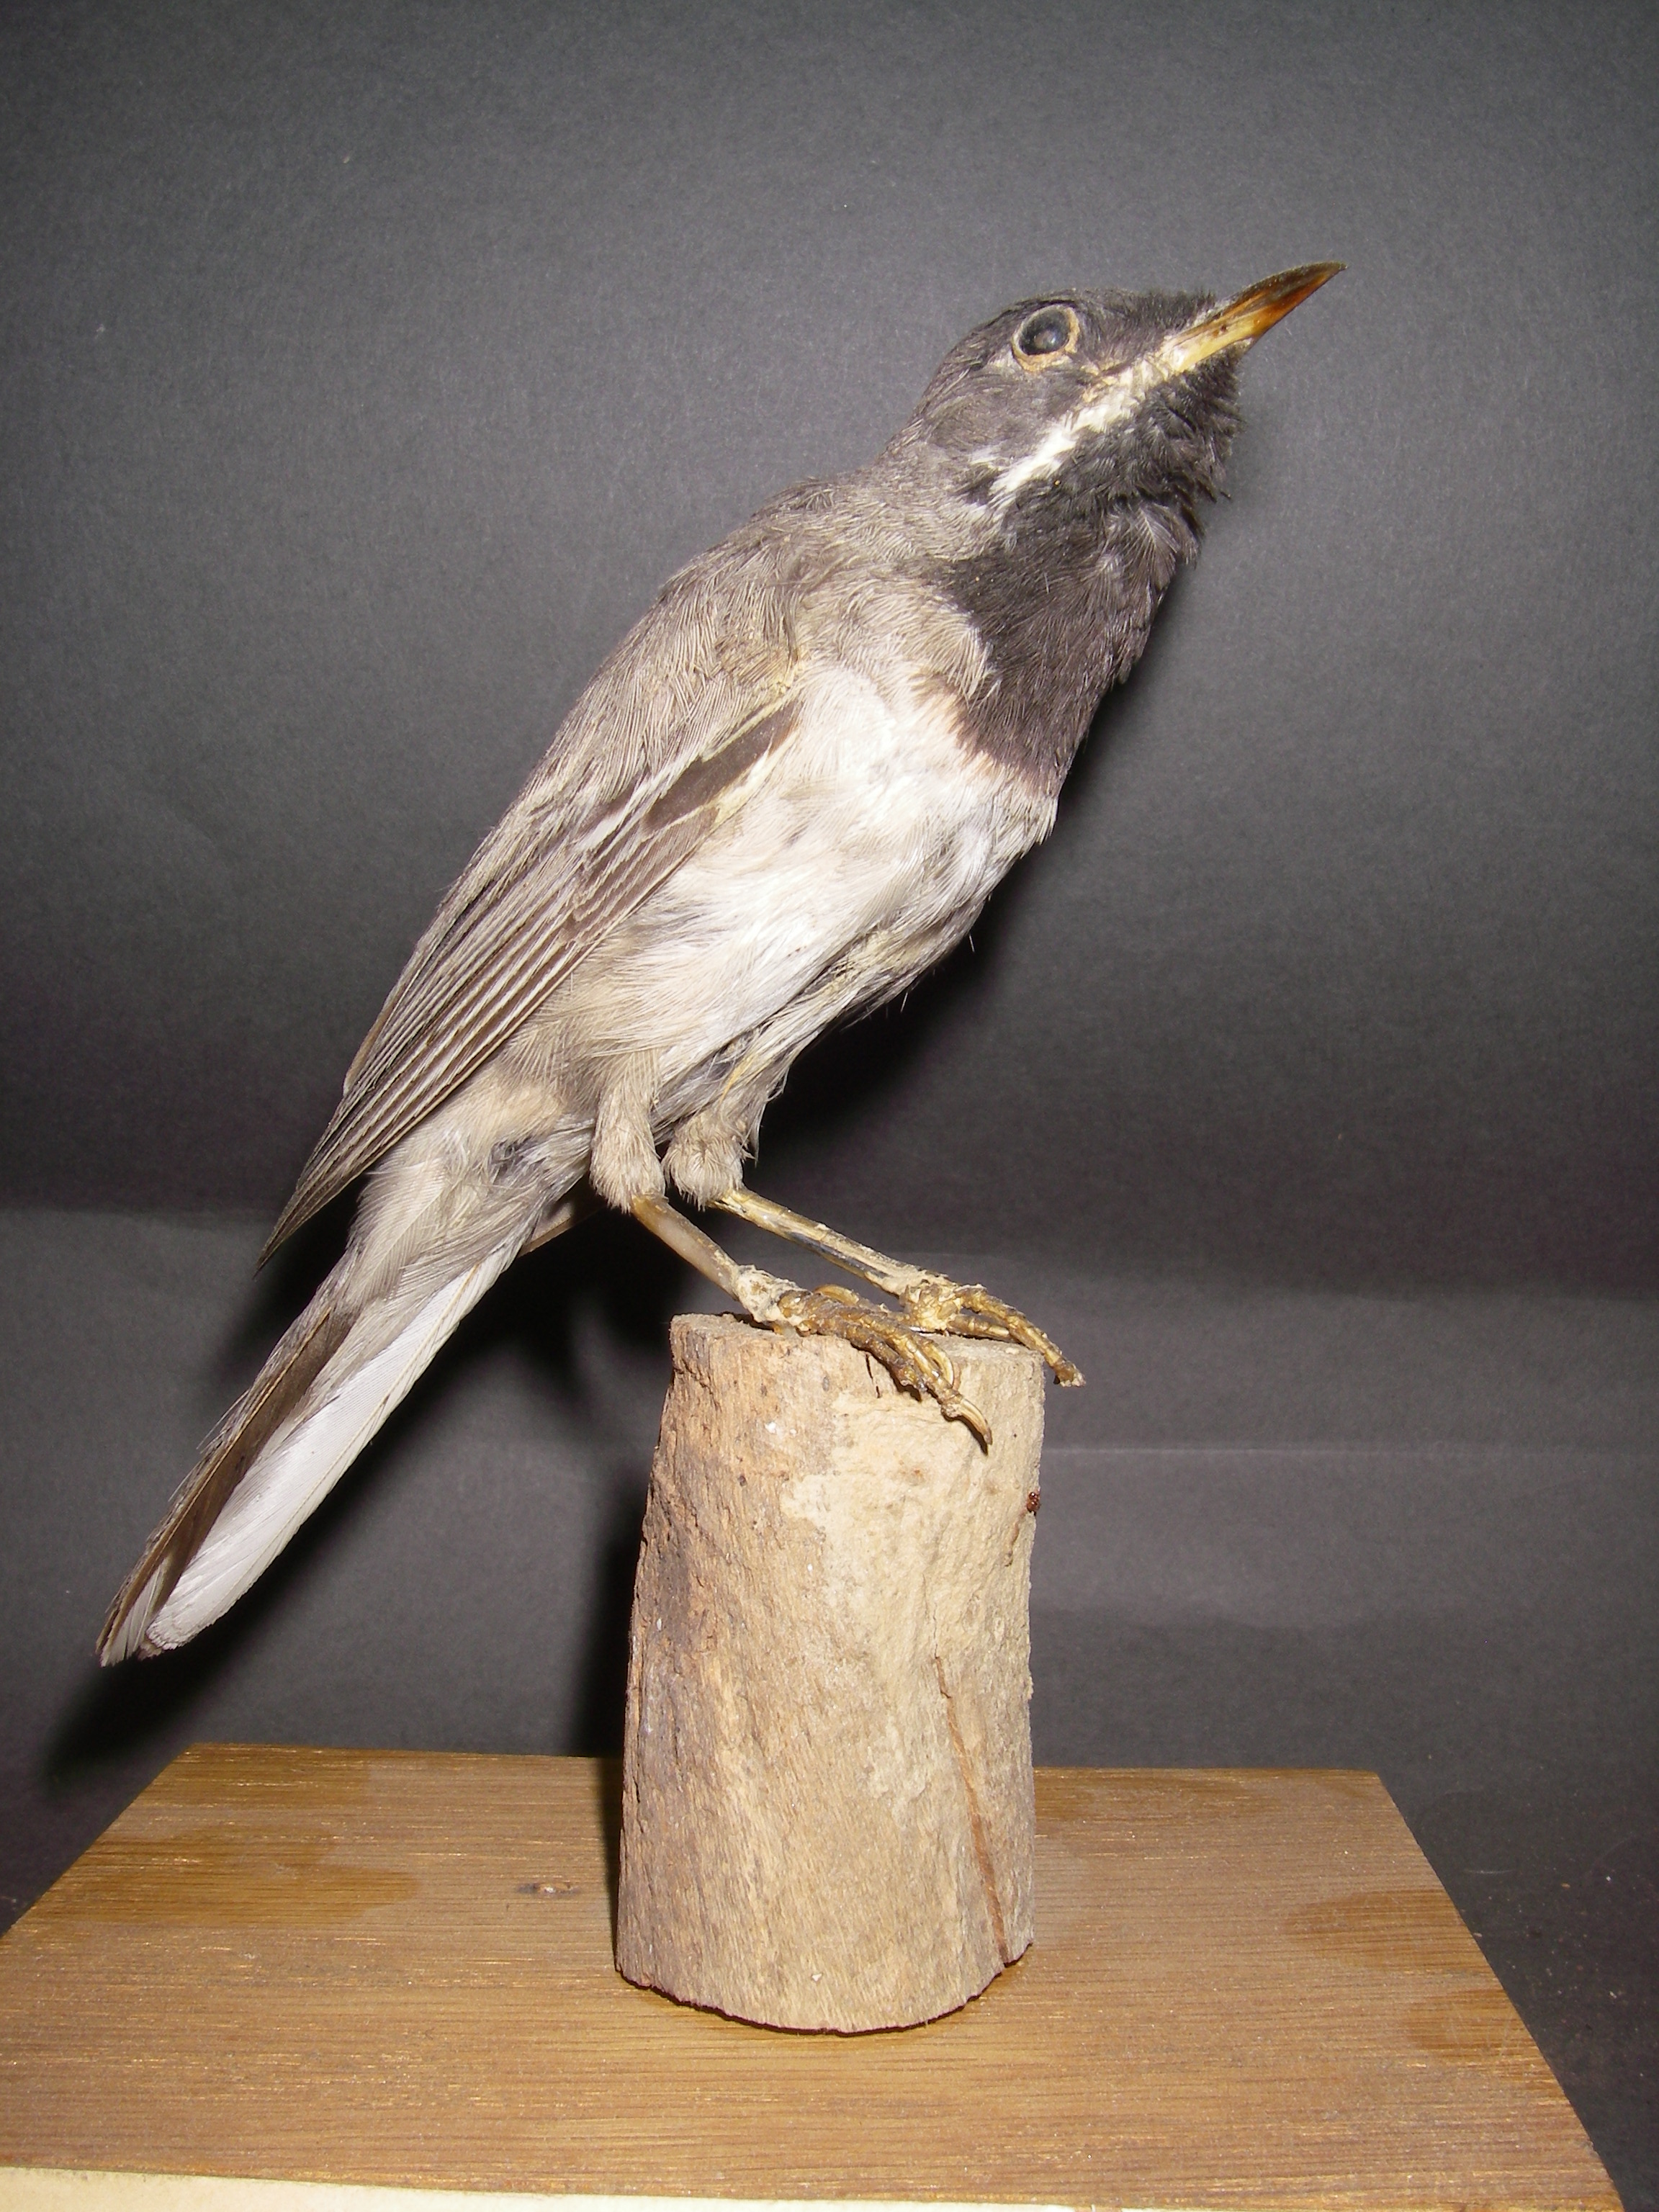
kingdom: Animalia
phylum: Chordata
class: Aves
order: Passeriformes
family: Sylviidae
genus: Sylvia
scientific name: Sylvia ruppeli
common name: Rüppell's warbler
